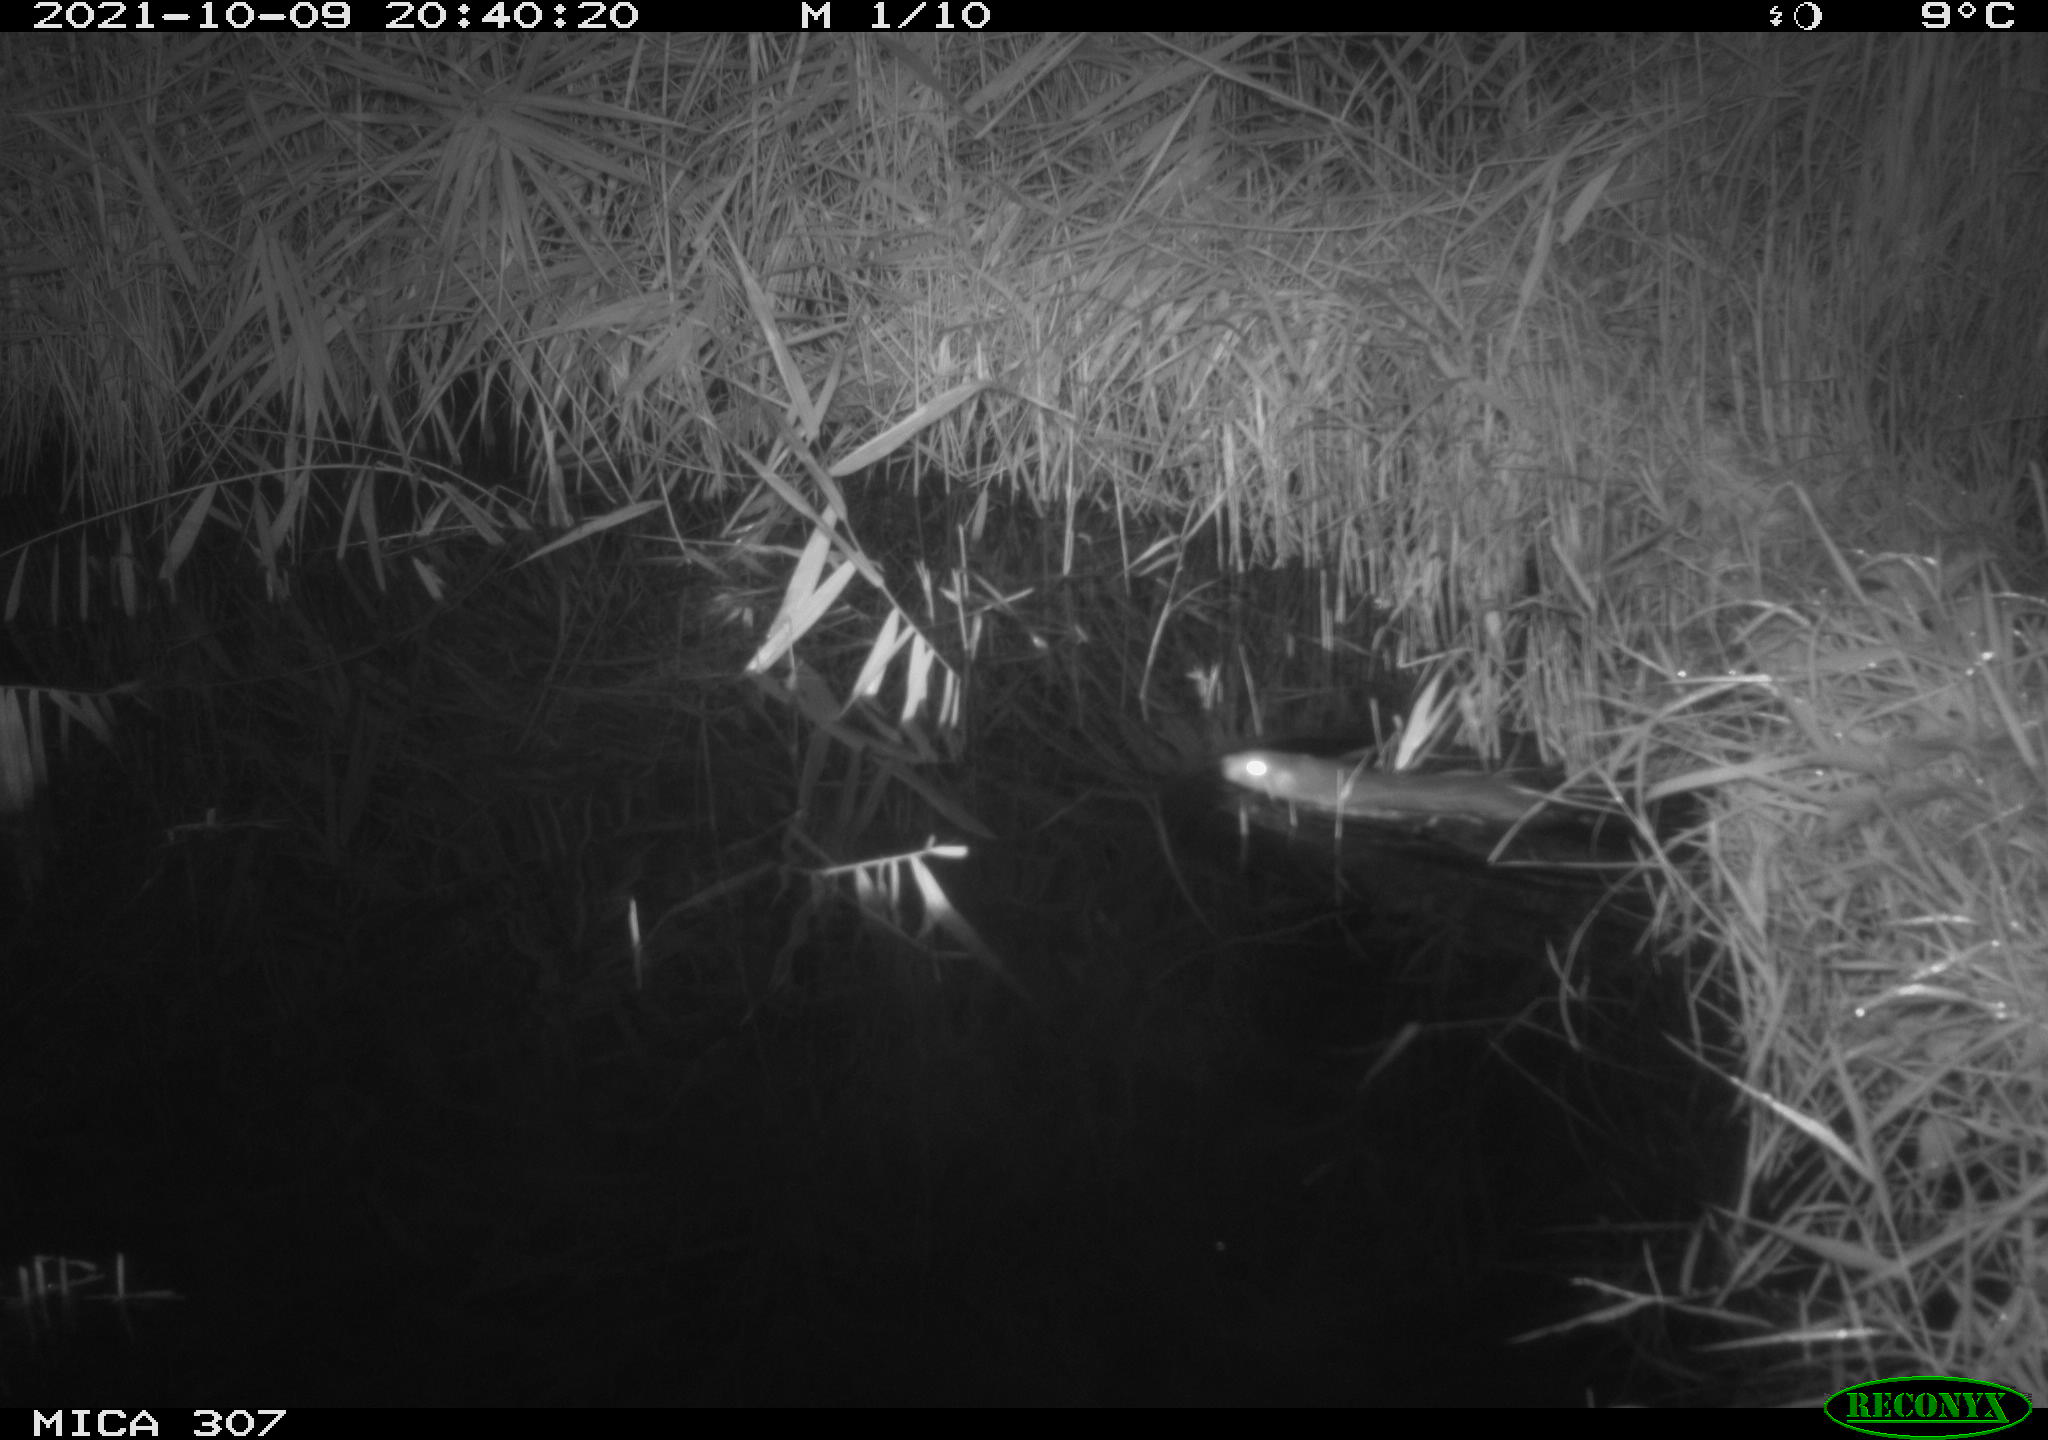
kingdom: Animalia
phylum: Chordata
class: Mammalia
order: Rodentia
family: Muridae
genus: Rattus
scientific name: Rattus norvegicus
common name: Brown rat
